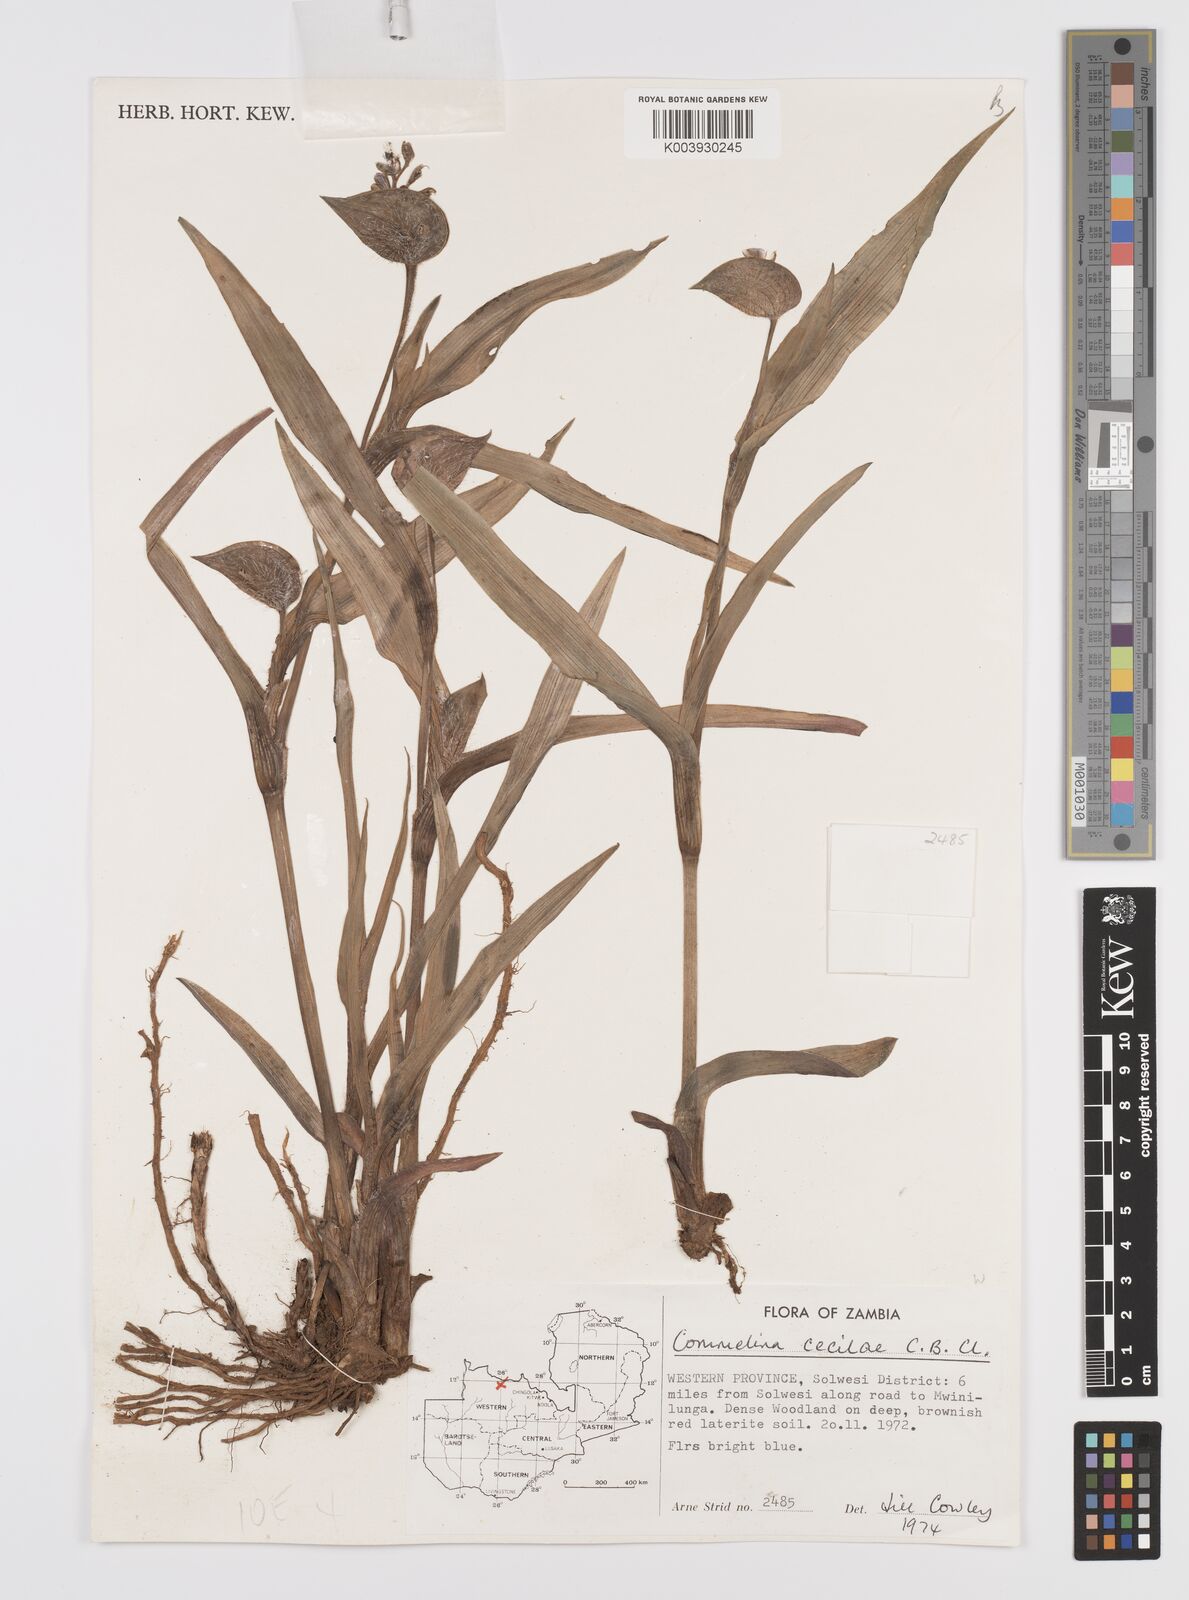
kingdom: Plantae
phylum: Tracheophyta
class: Liliopsida
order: Commelinales
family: Commelinaceae
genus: Commelina
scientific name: Commelina schweinfurthii
